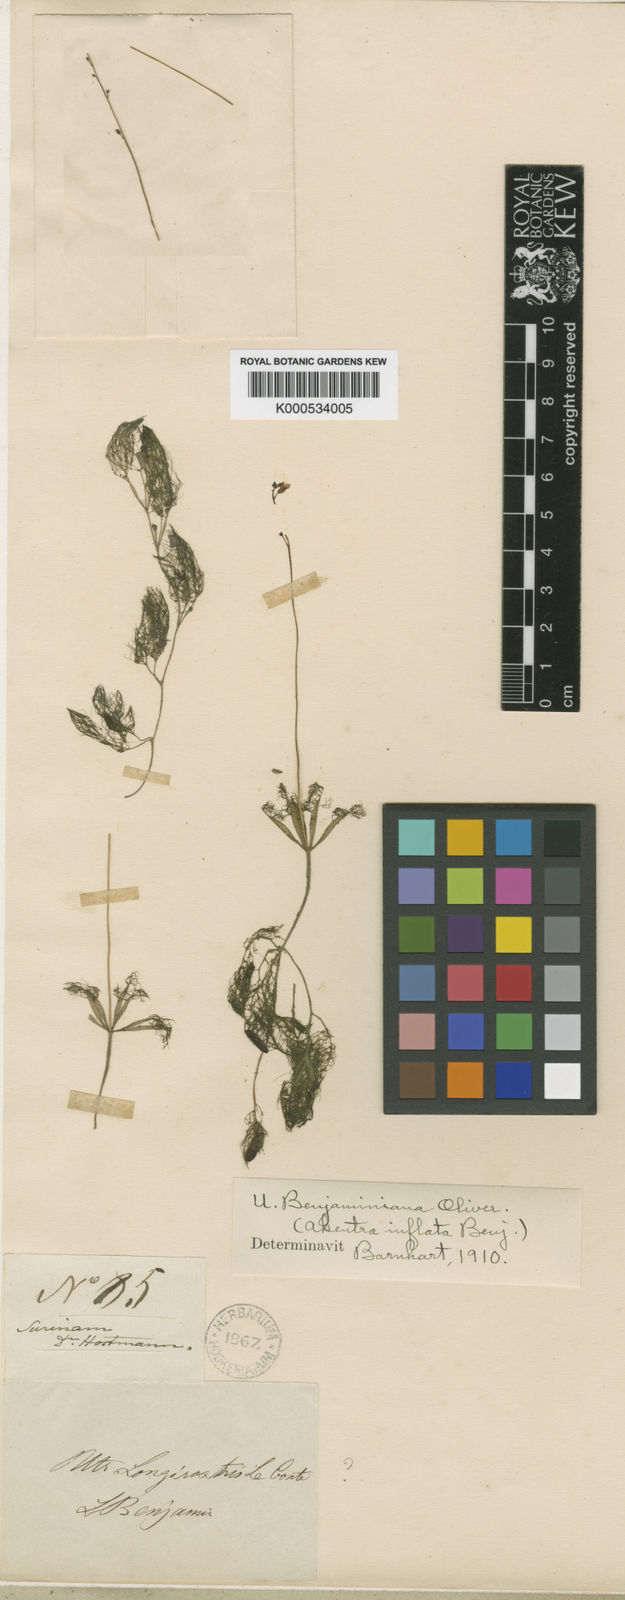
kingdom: Plantae
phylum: Tracheophyta
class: Magnoliopsida
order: Lamiales
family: Lentibulariaceae
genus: Utricularia
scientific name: Utricularia benjaminiana
